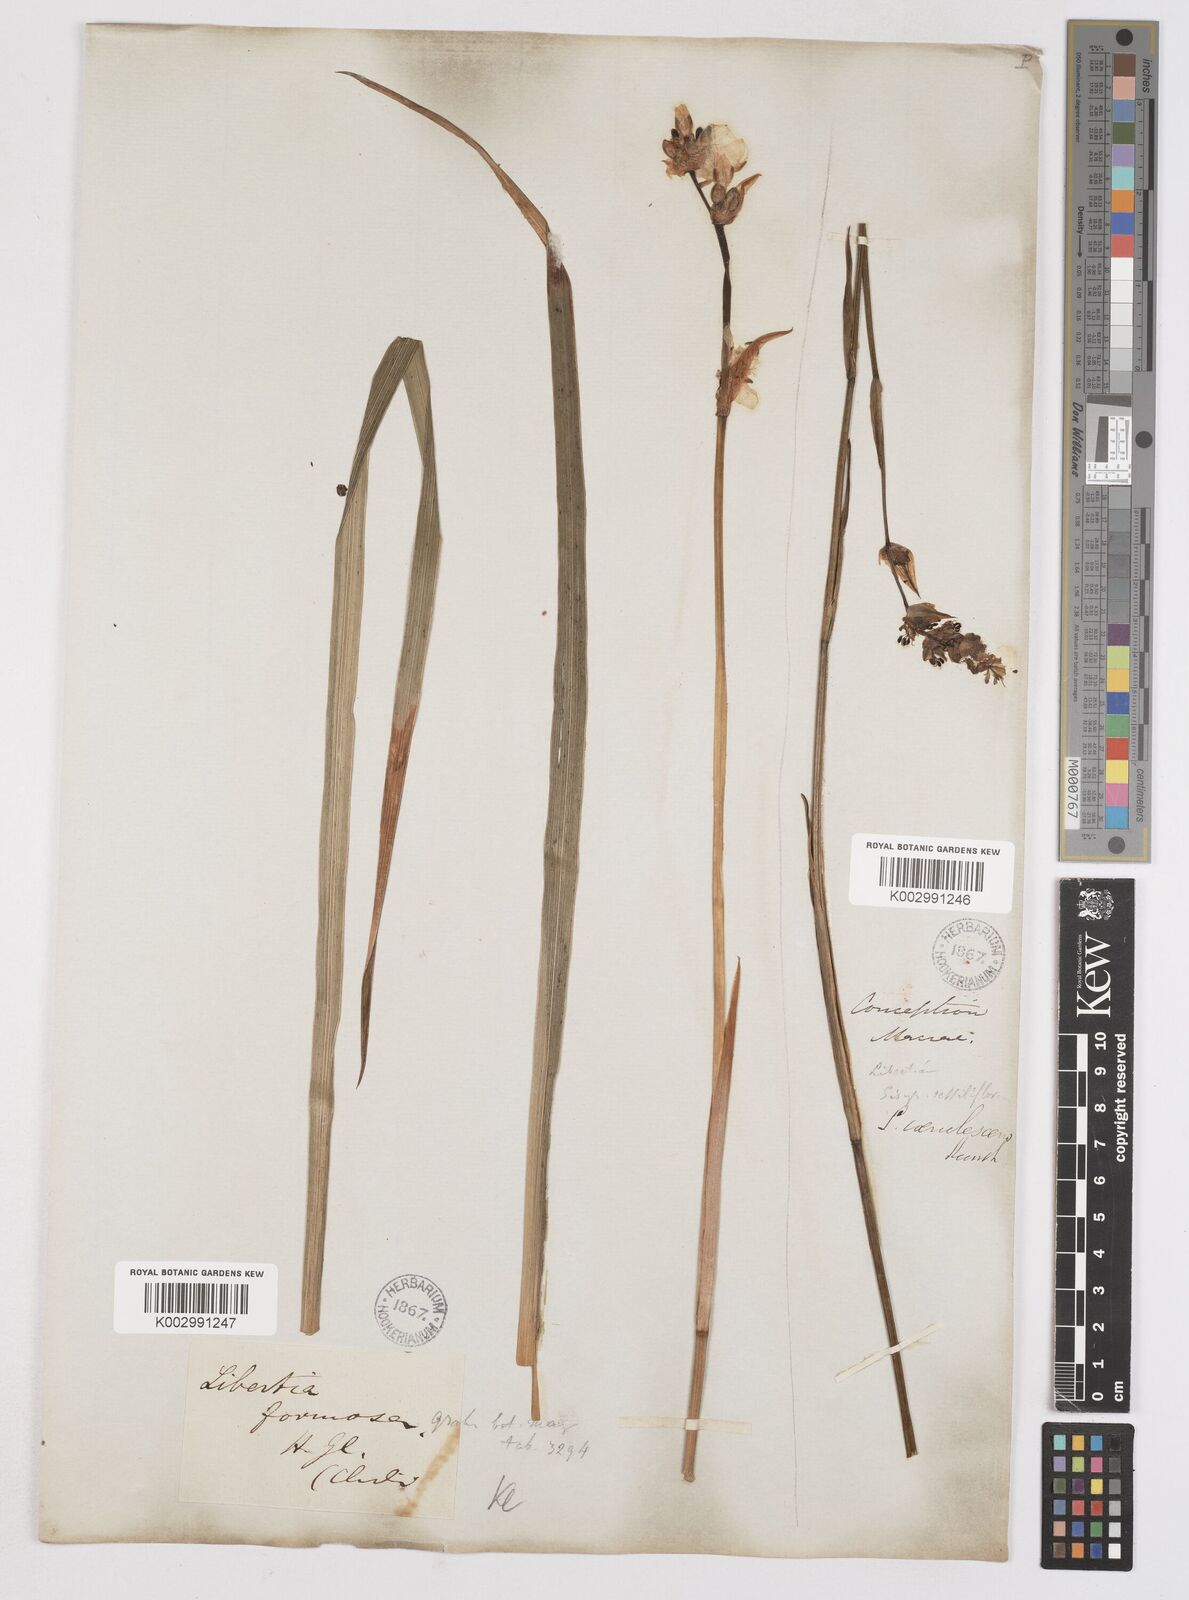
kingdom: Plantae
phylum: Tracheophyta
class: Liliopsida
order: Asparagales
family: Iridaceae
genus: Libertia
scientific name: Libertia chilensis
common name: Satin flower
